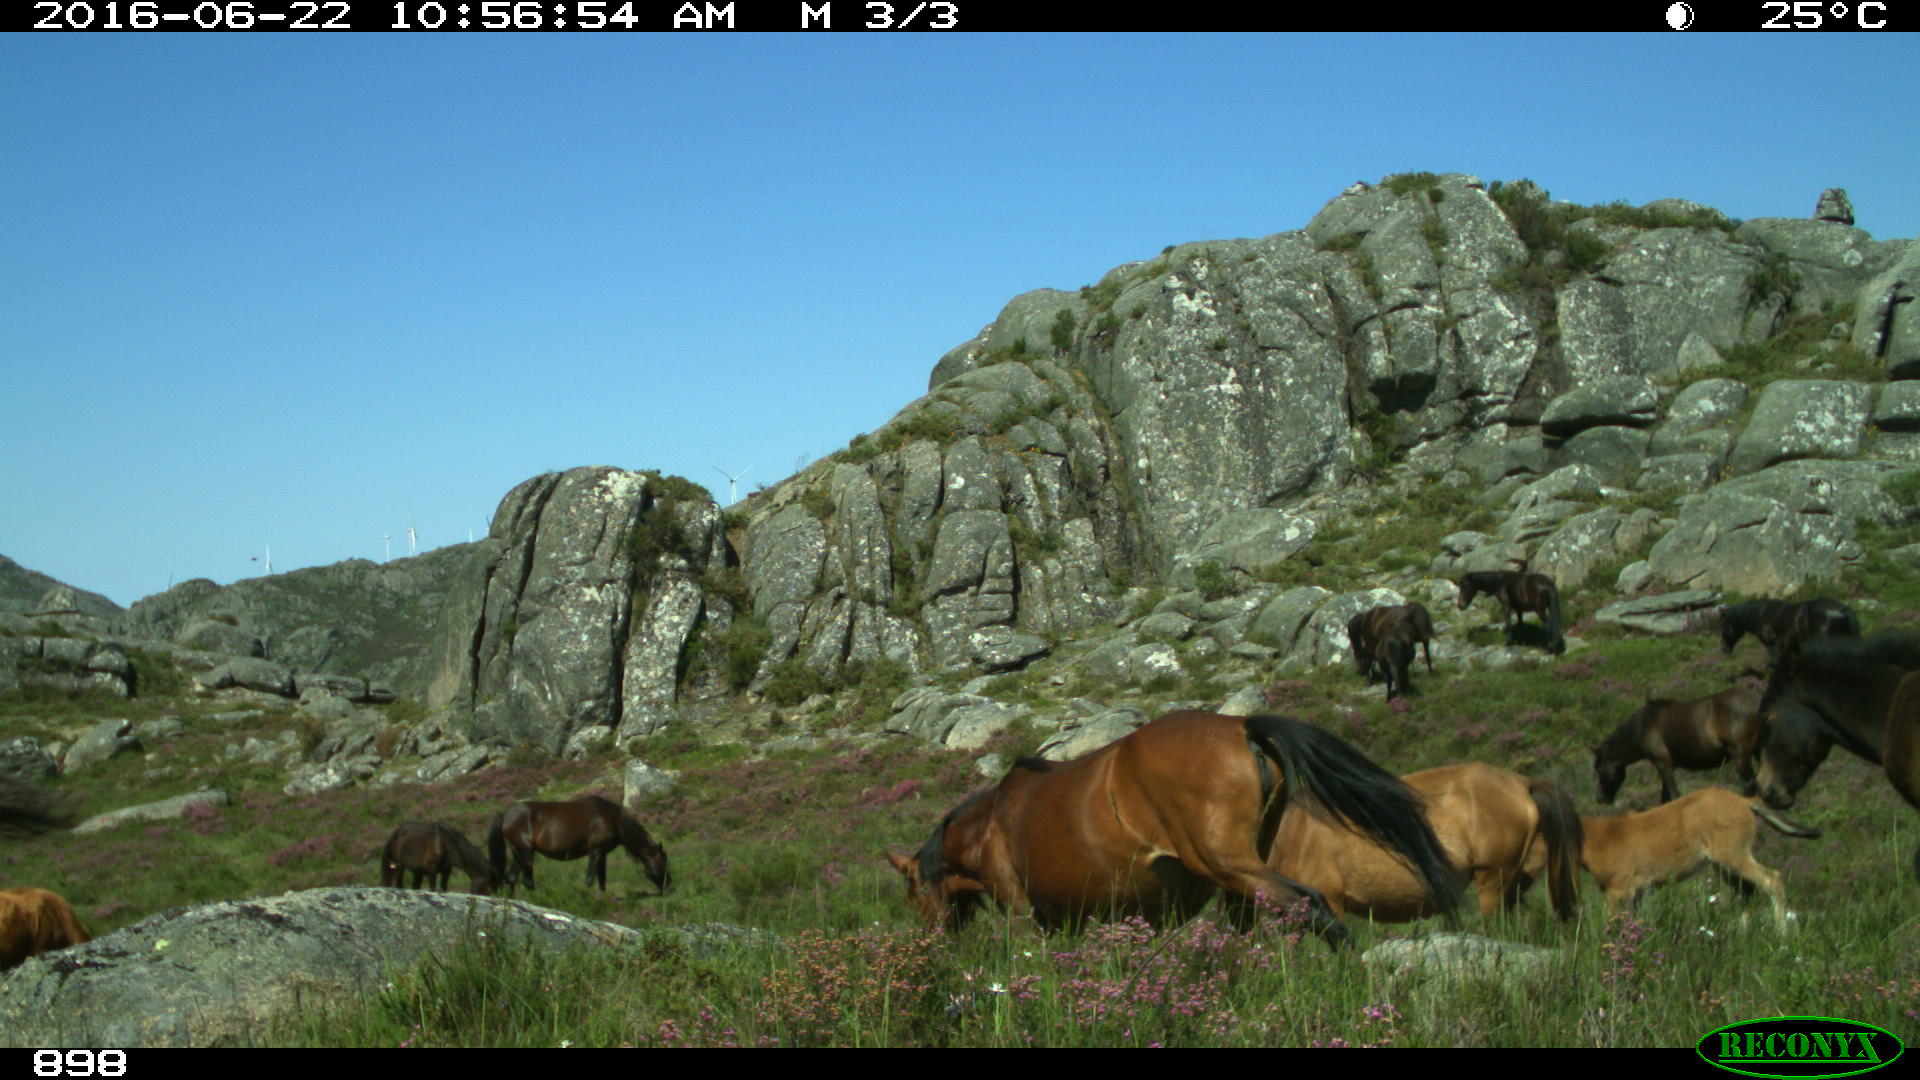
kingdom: Animalia
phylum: Chordata
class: Mammalia
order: Perissodactyla
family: Equidae
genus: Equus
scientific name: Equus caballus
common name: Horse
